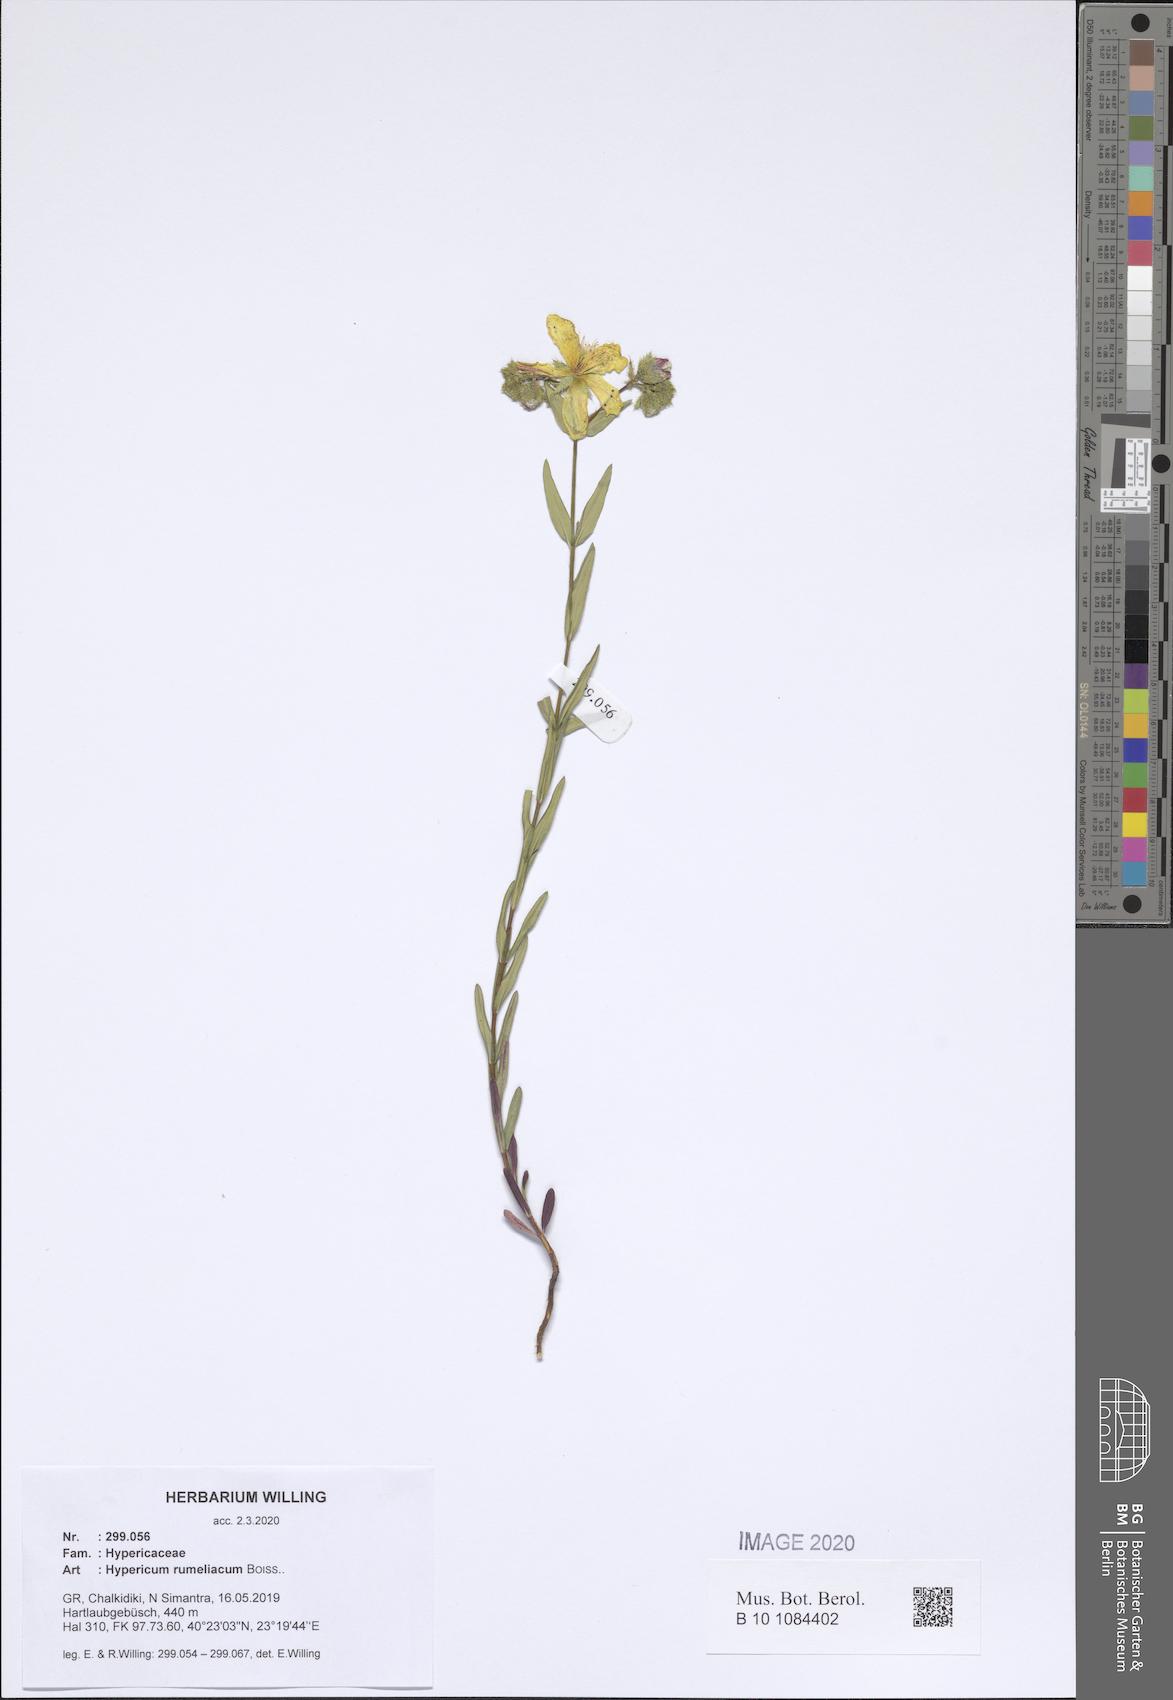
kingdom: Plantae
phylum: Tracheophyta
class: Magnoliopsida
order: Malpighiales
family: Hypericaceae
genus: Hypericum
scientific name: Hypericum rumeliacum
